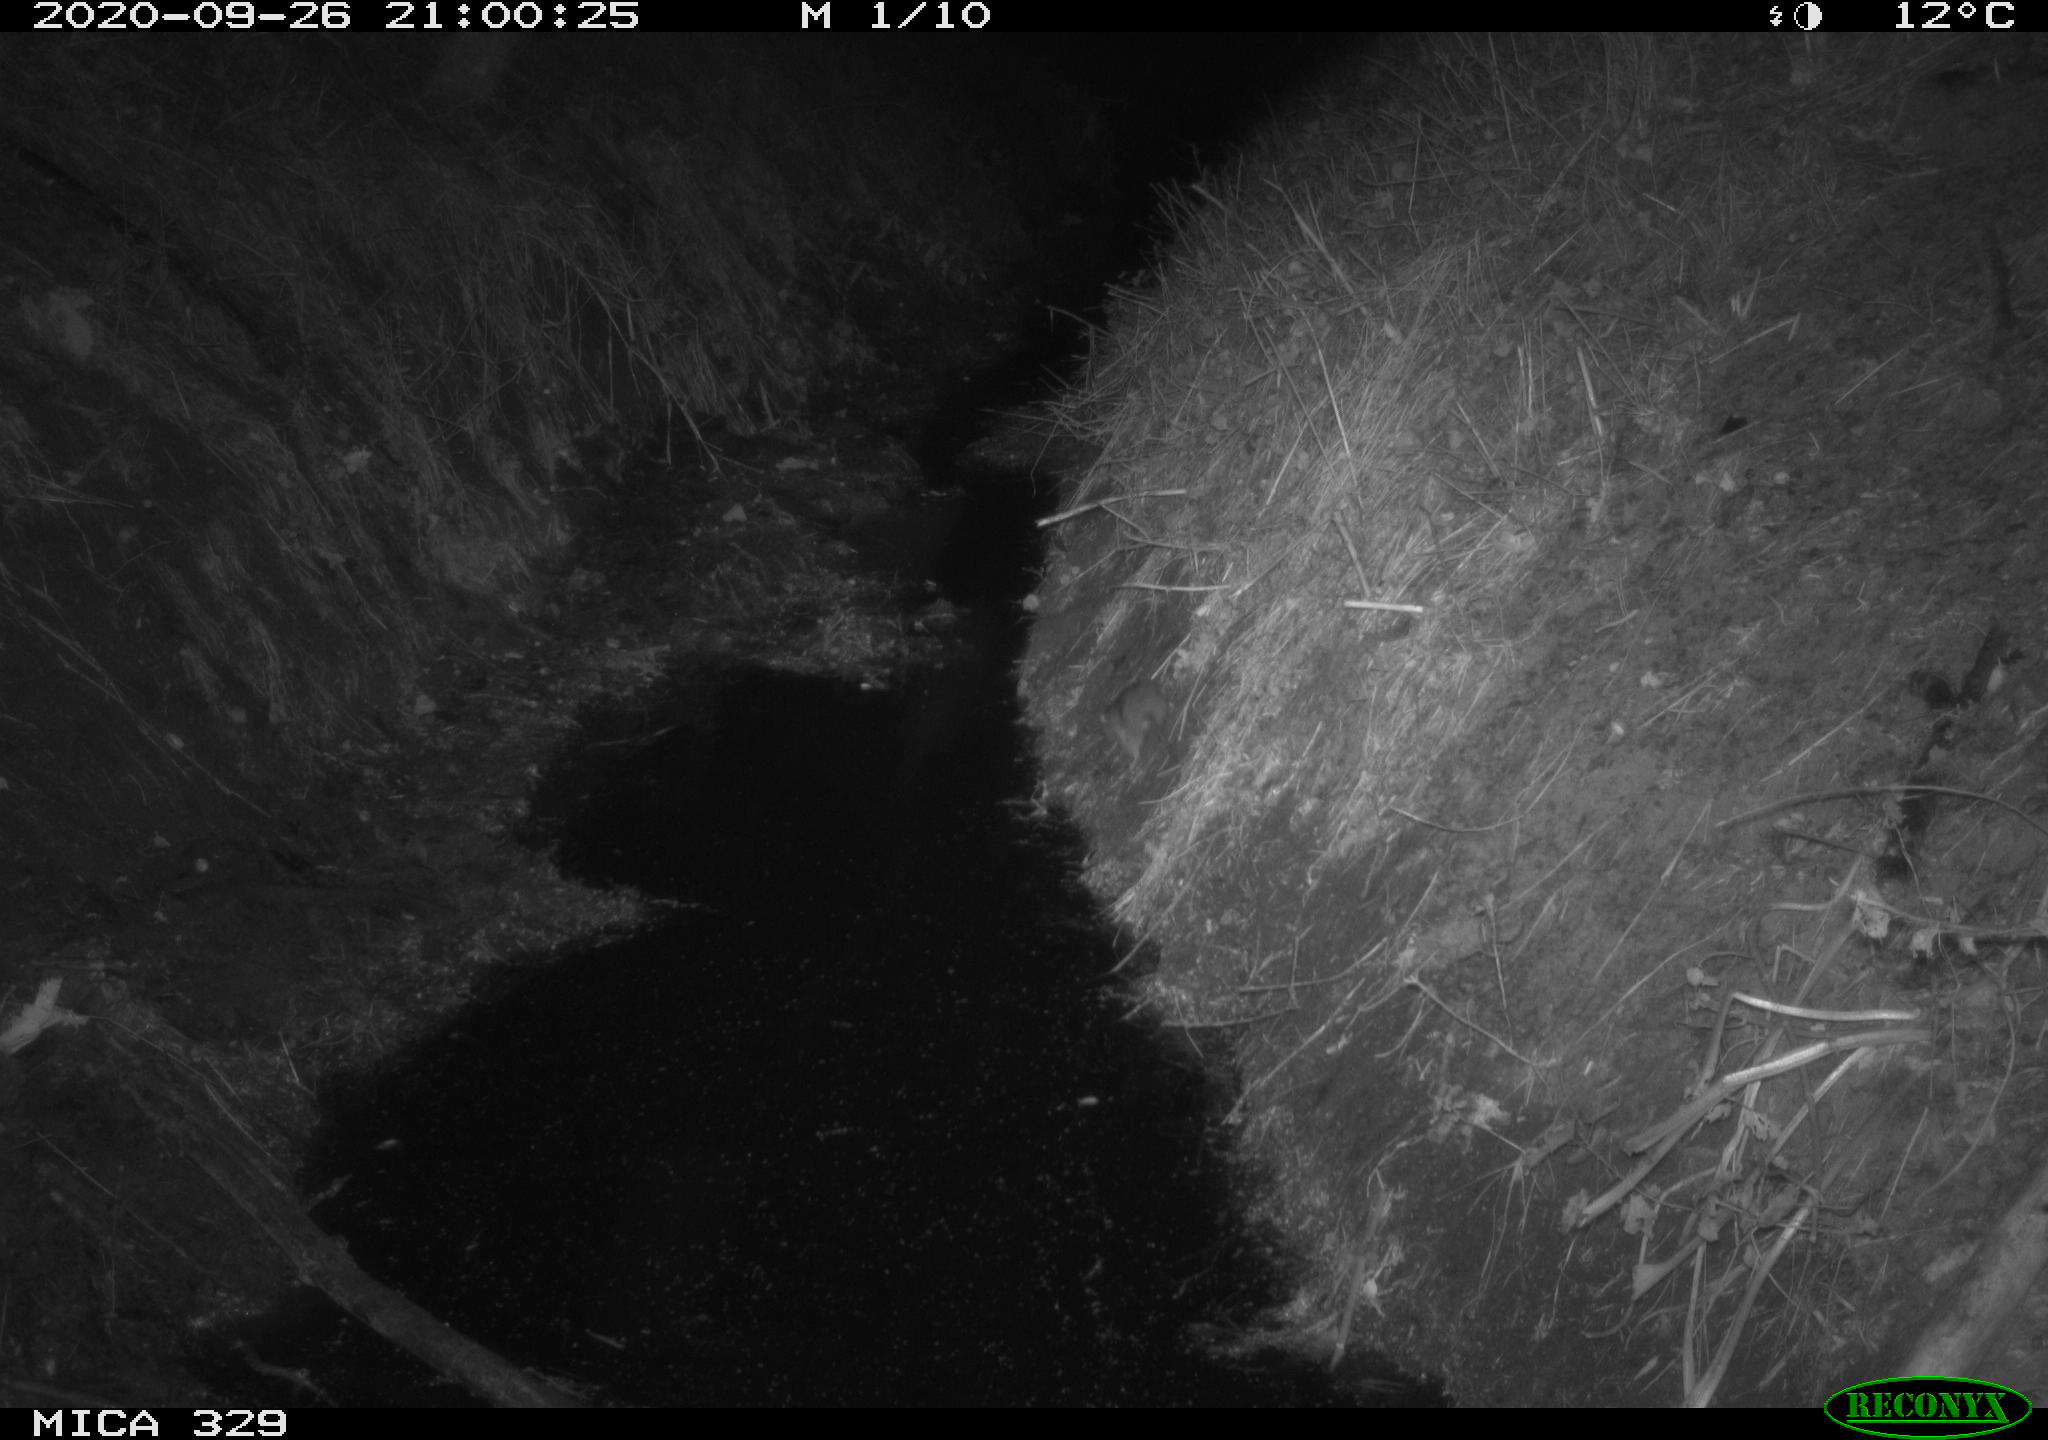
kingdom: Animalia
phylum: Chordata
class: Mammalia
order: Rodentia
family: Muridae
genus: Rattus
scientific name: Rattus norvegicus
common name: Brown rat
